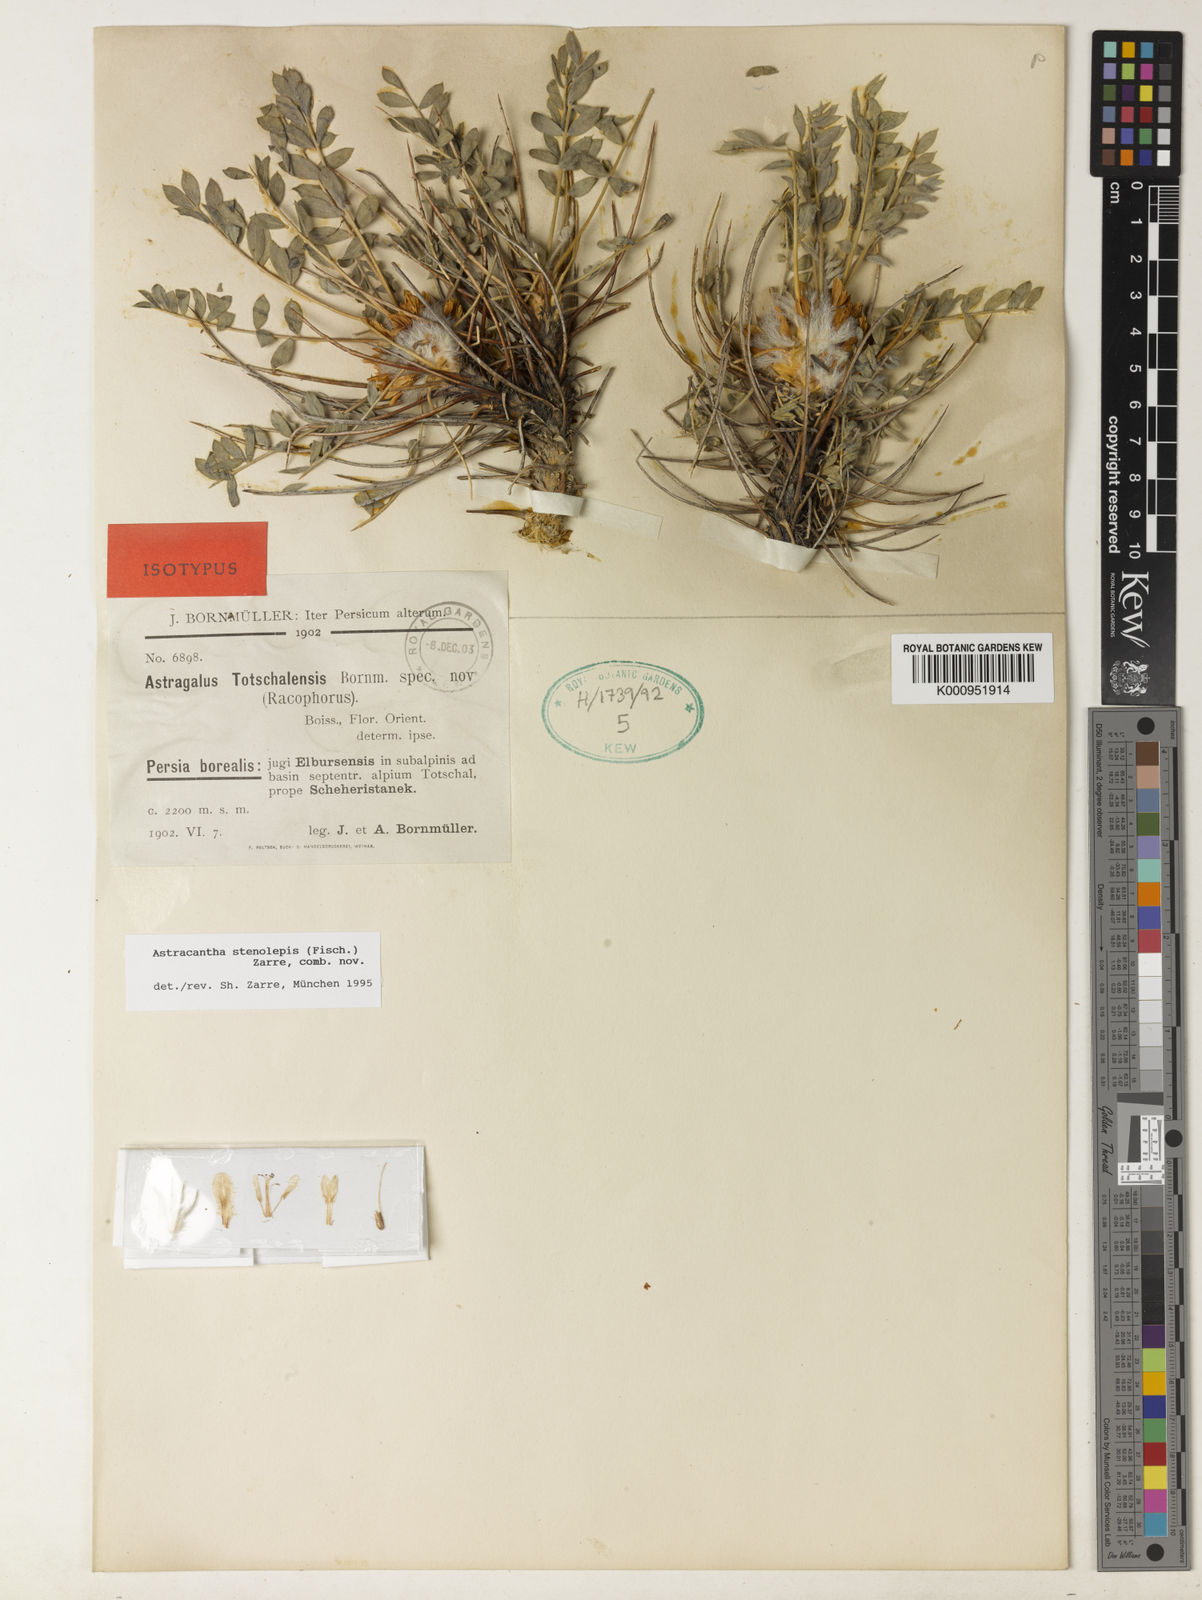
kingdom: Plantae
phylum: Tracheophyta
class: Magnoliopsida
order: Fabales
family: Fabaceae
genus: Astragalus
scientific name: Astragalus stenolepis
